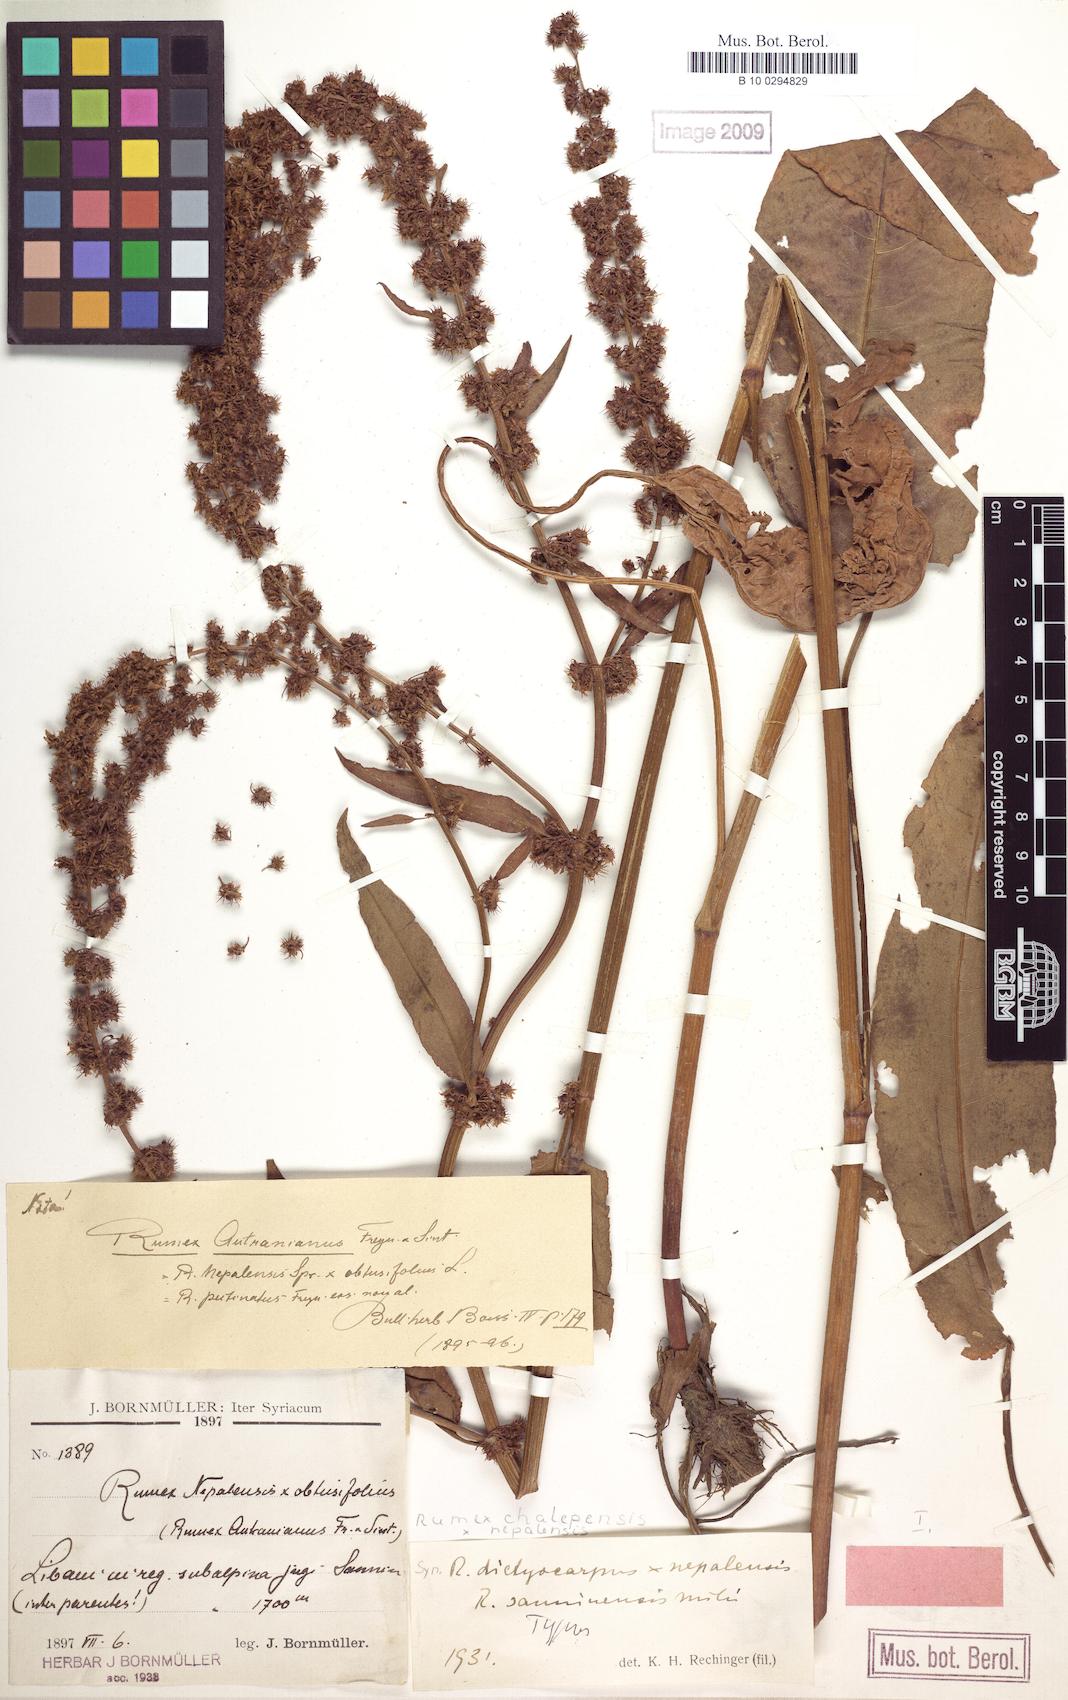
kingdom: Plantae
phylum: Tracheophyta
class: Magnoliopsida
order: Caryophyllales
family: Polygonaceae
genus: Rumex
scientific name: Rumex chalepensis
